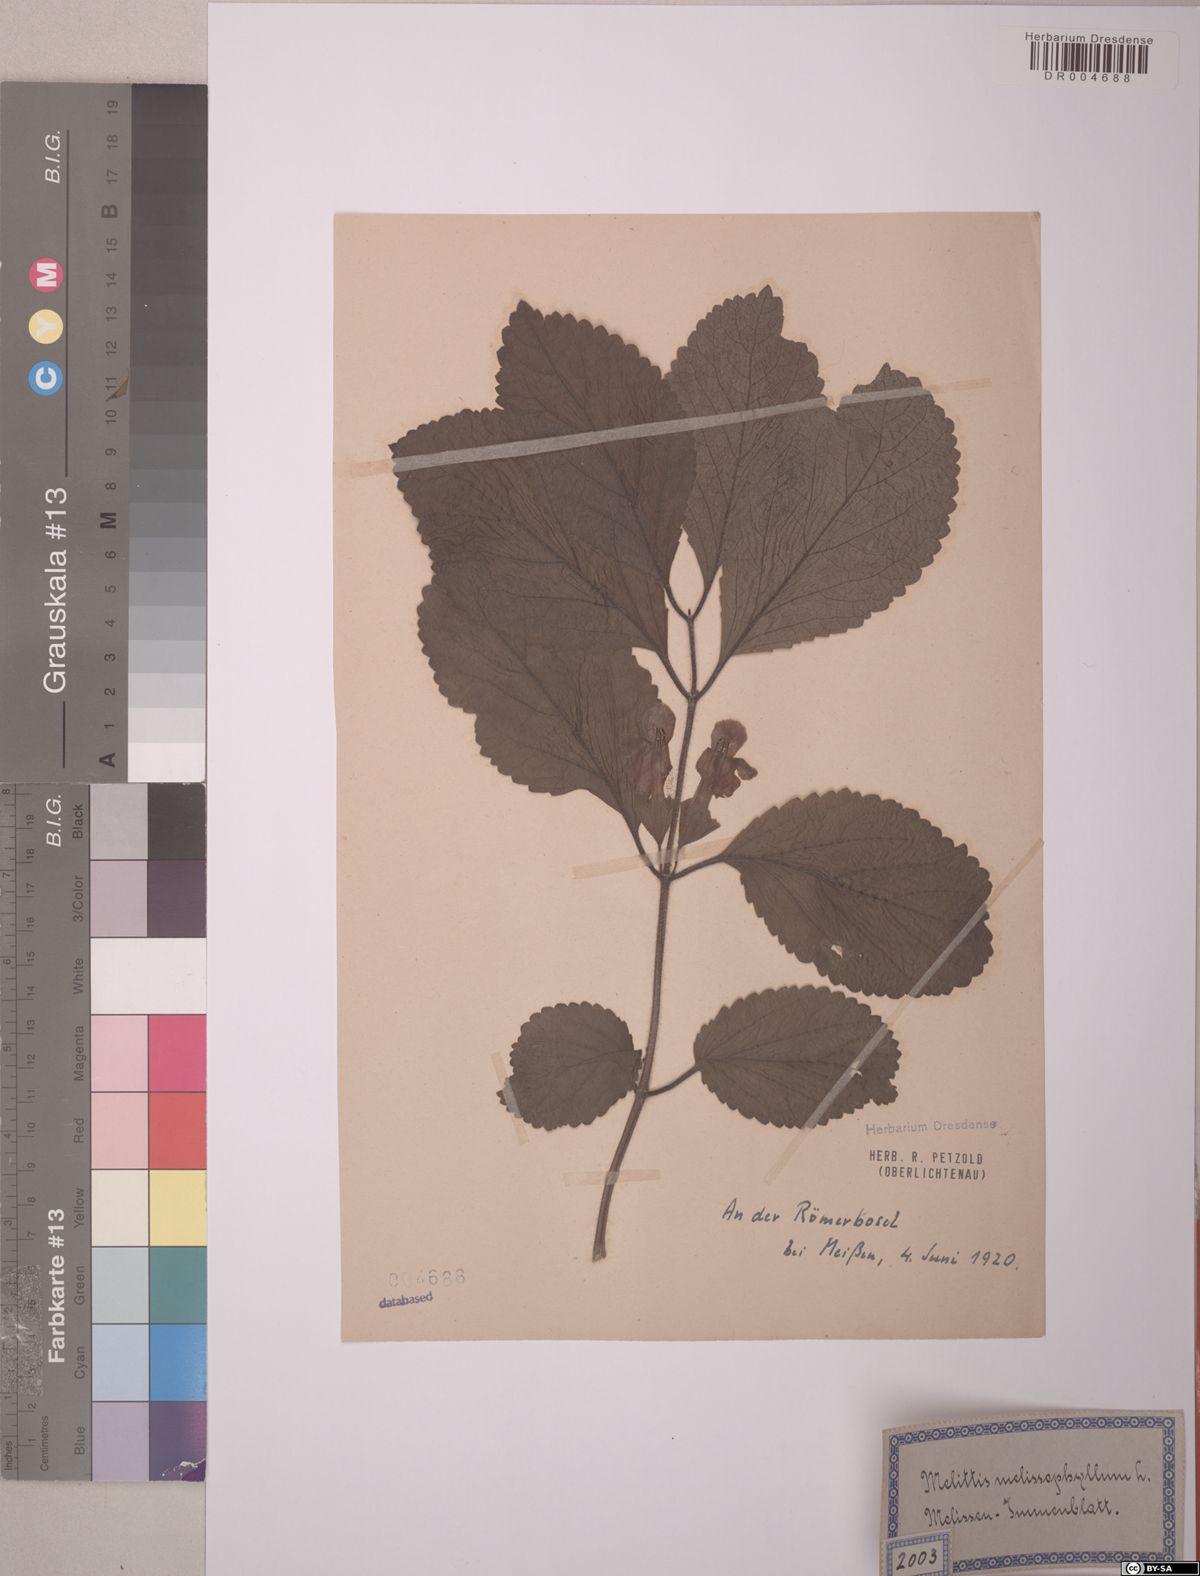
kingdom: Plantae
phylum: Tracheophyta
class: Magnoliopsida
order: Lamiales
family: Lamiaceae
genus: Melittis
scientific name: Melittis melissophyllum
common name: Bastard balm
